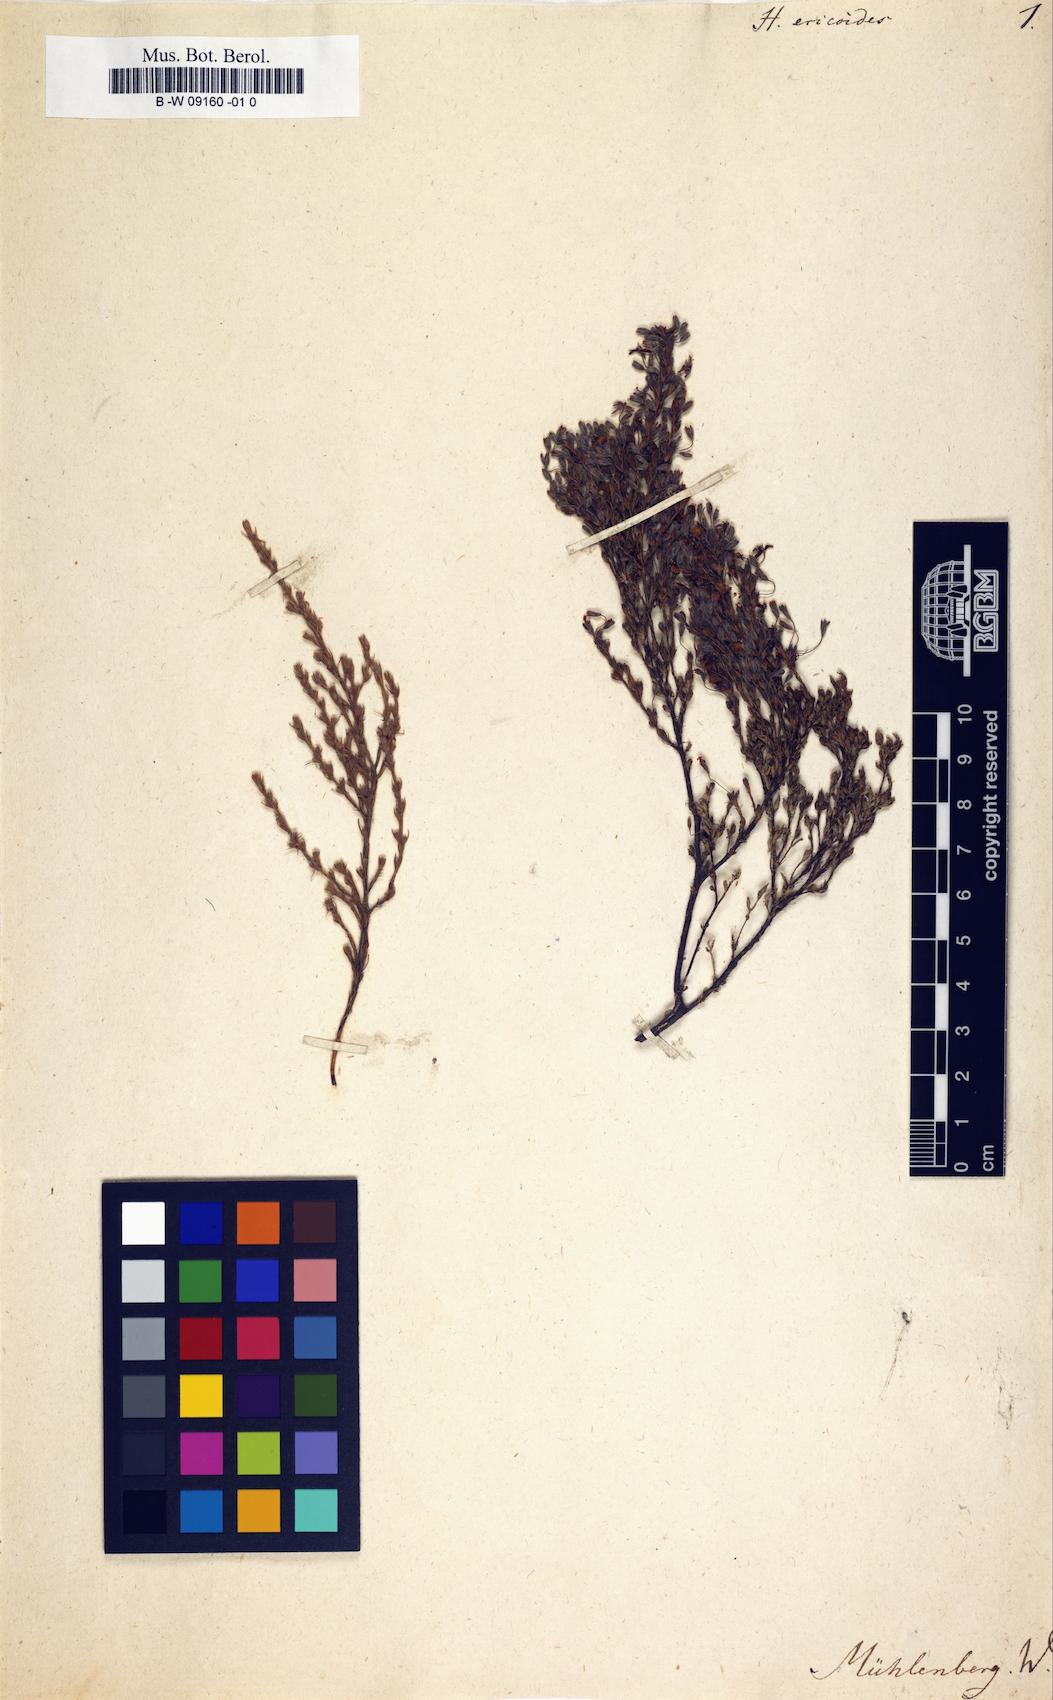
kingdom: Plantae
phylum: Tracheophyta
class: Magnoliopsida
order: Malvales
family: Cistaceae
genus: Hudsonia
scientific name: Hudsonia ericoides
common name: Golden-heather
